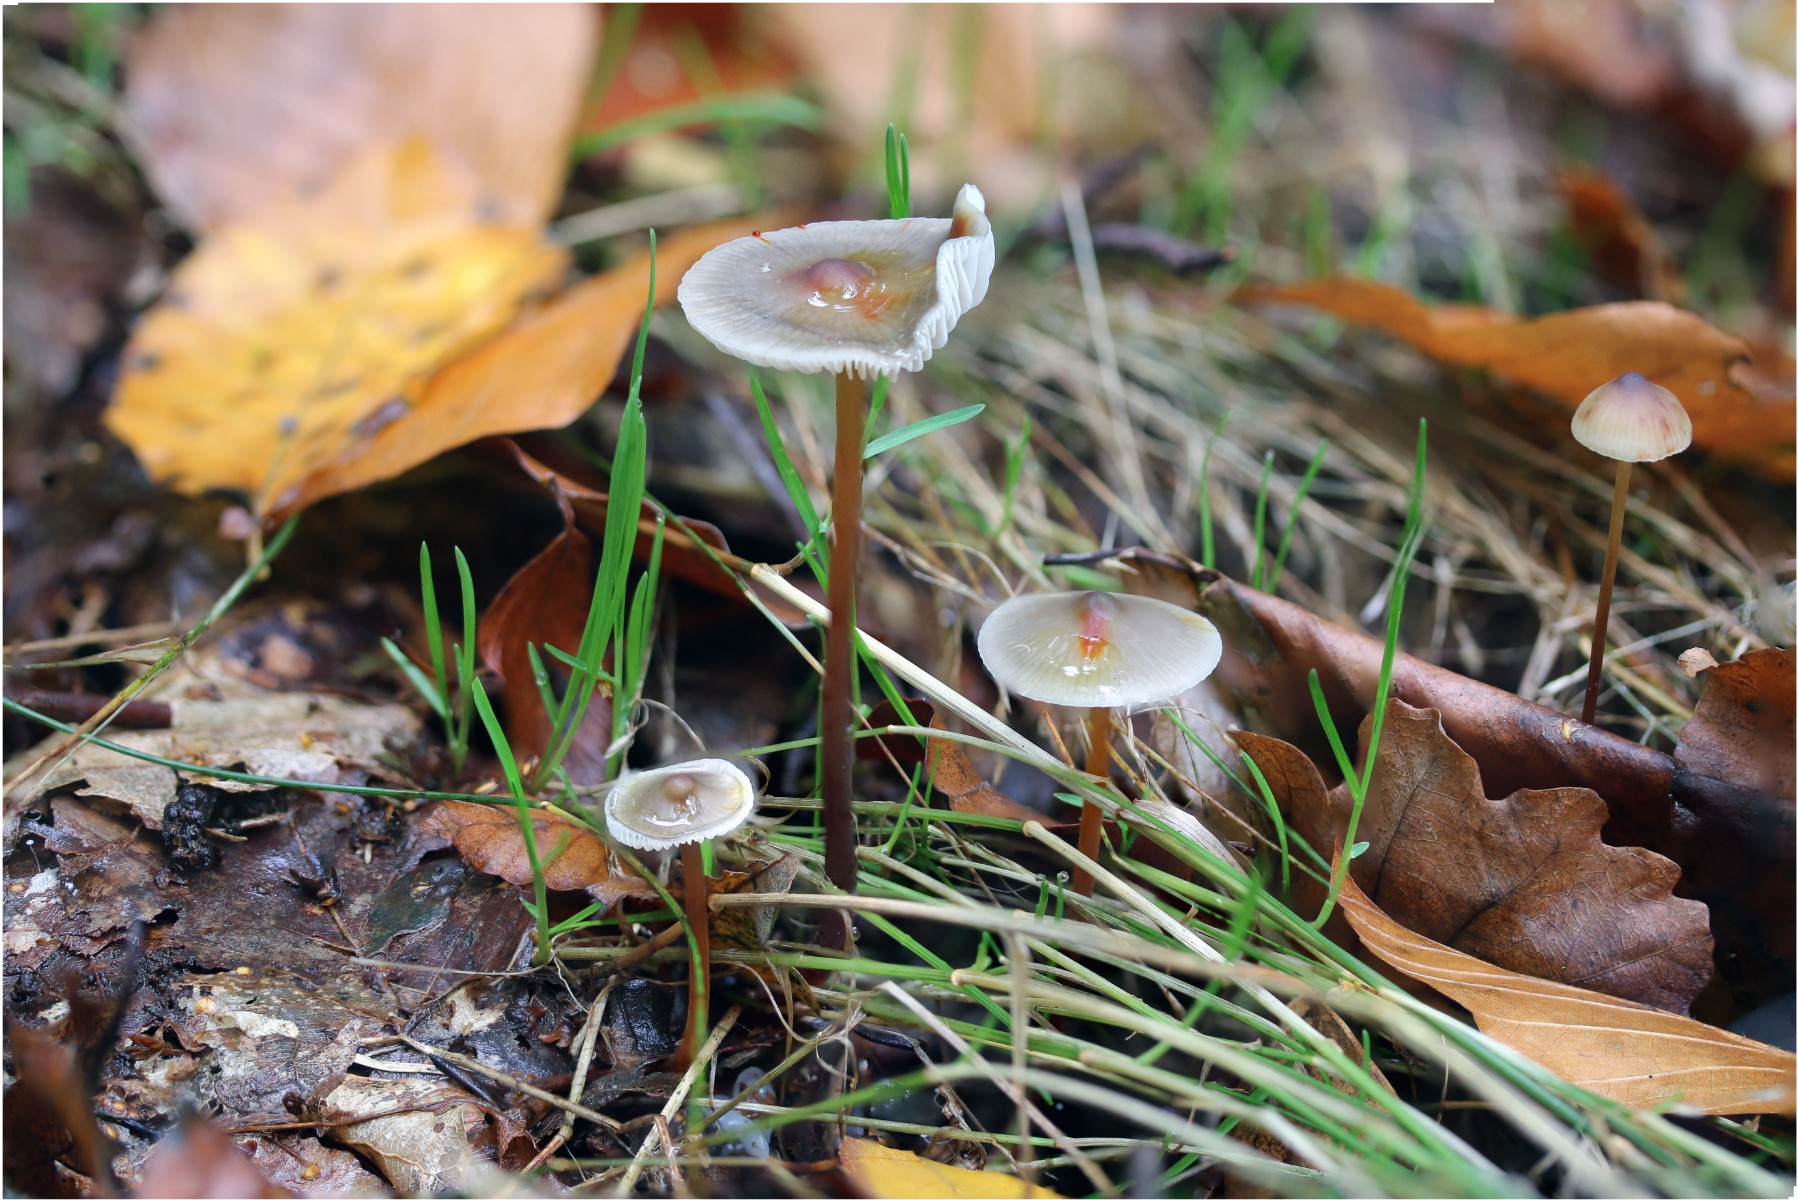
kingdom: Fungi
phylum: Basidiomycota
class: Agaricomycetes
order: Agaricales
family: Mycenaceae
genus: Mycena
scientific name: Mycena crocata
